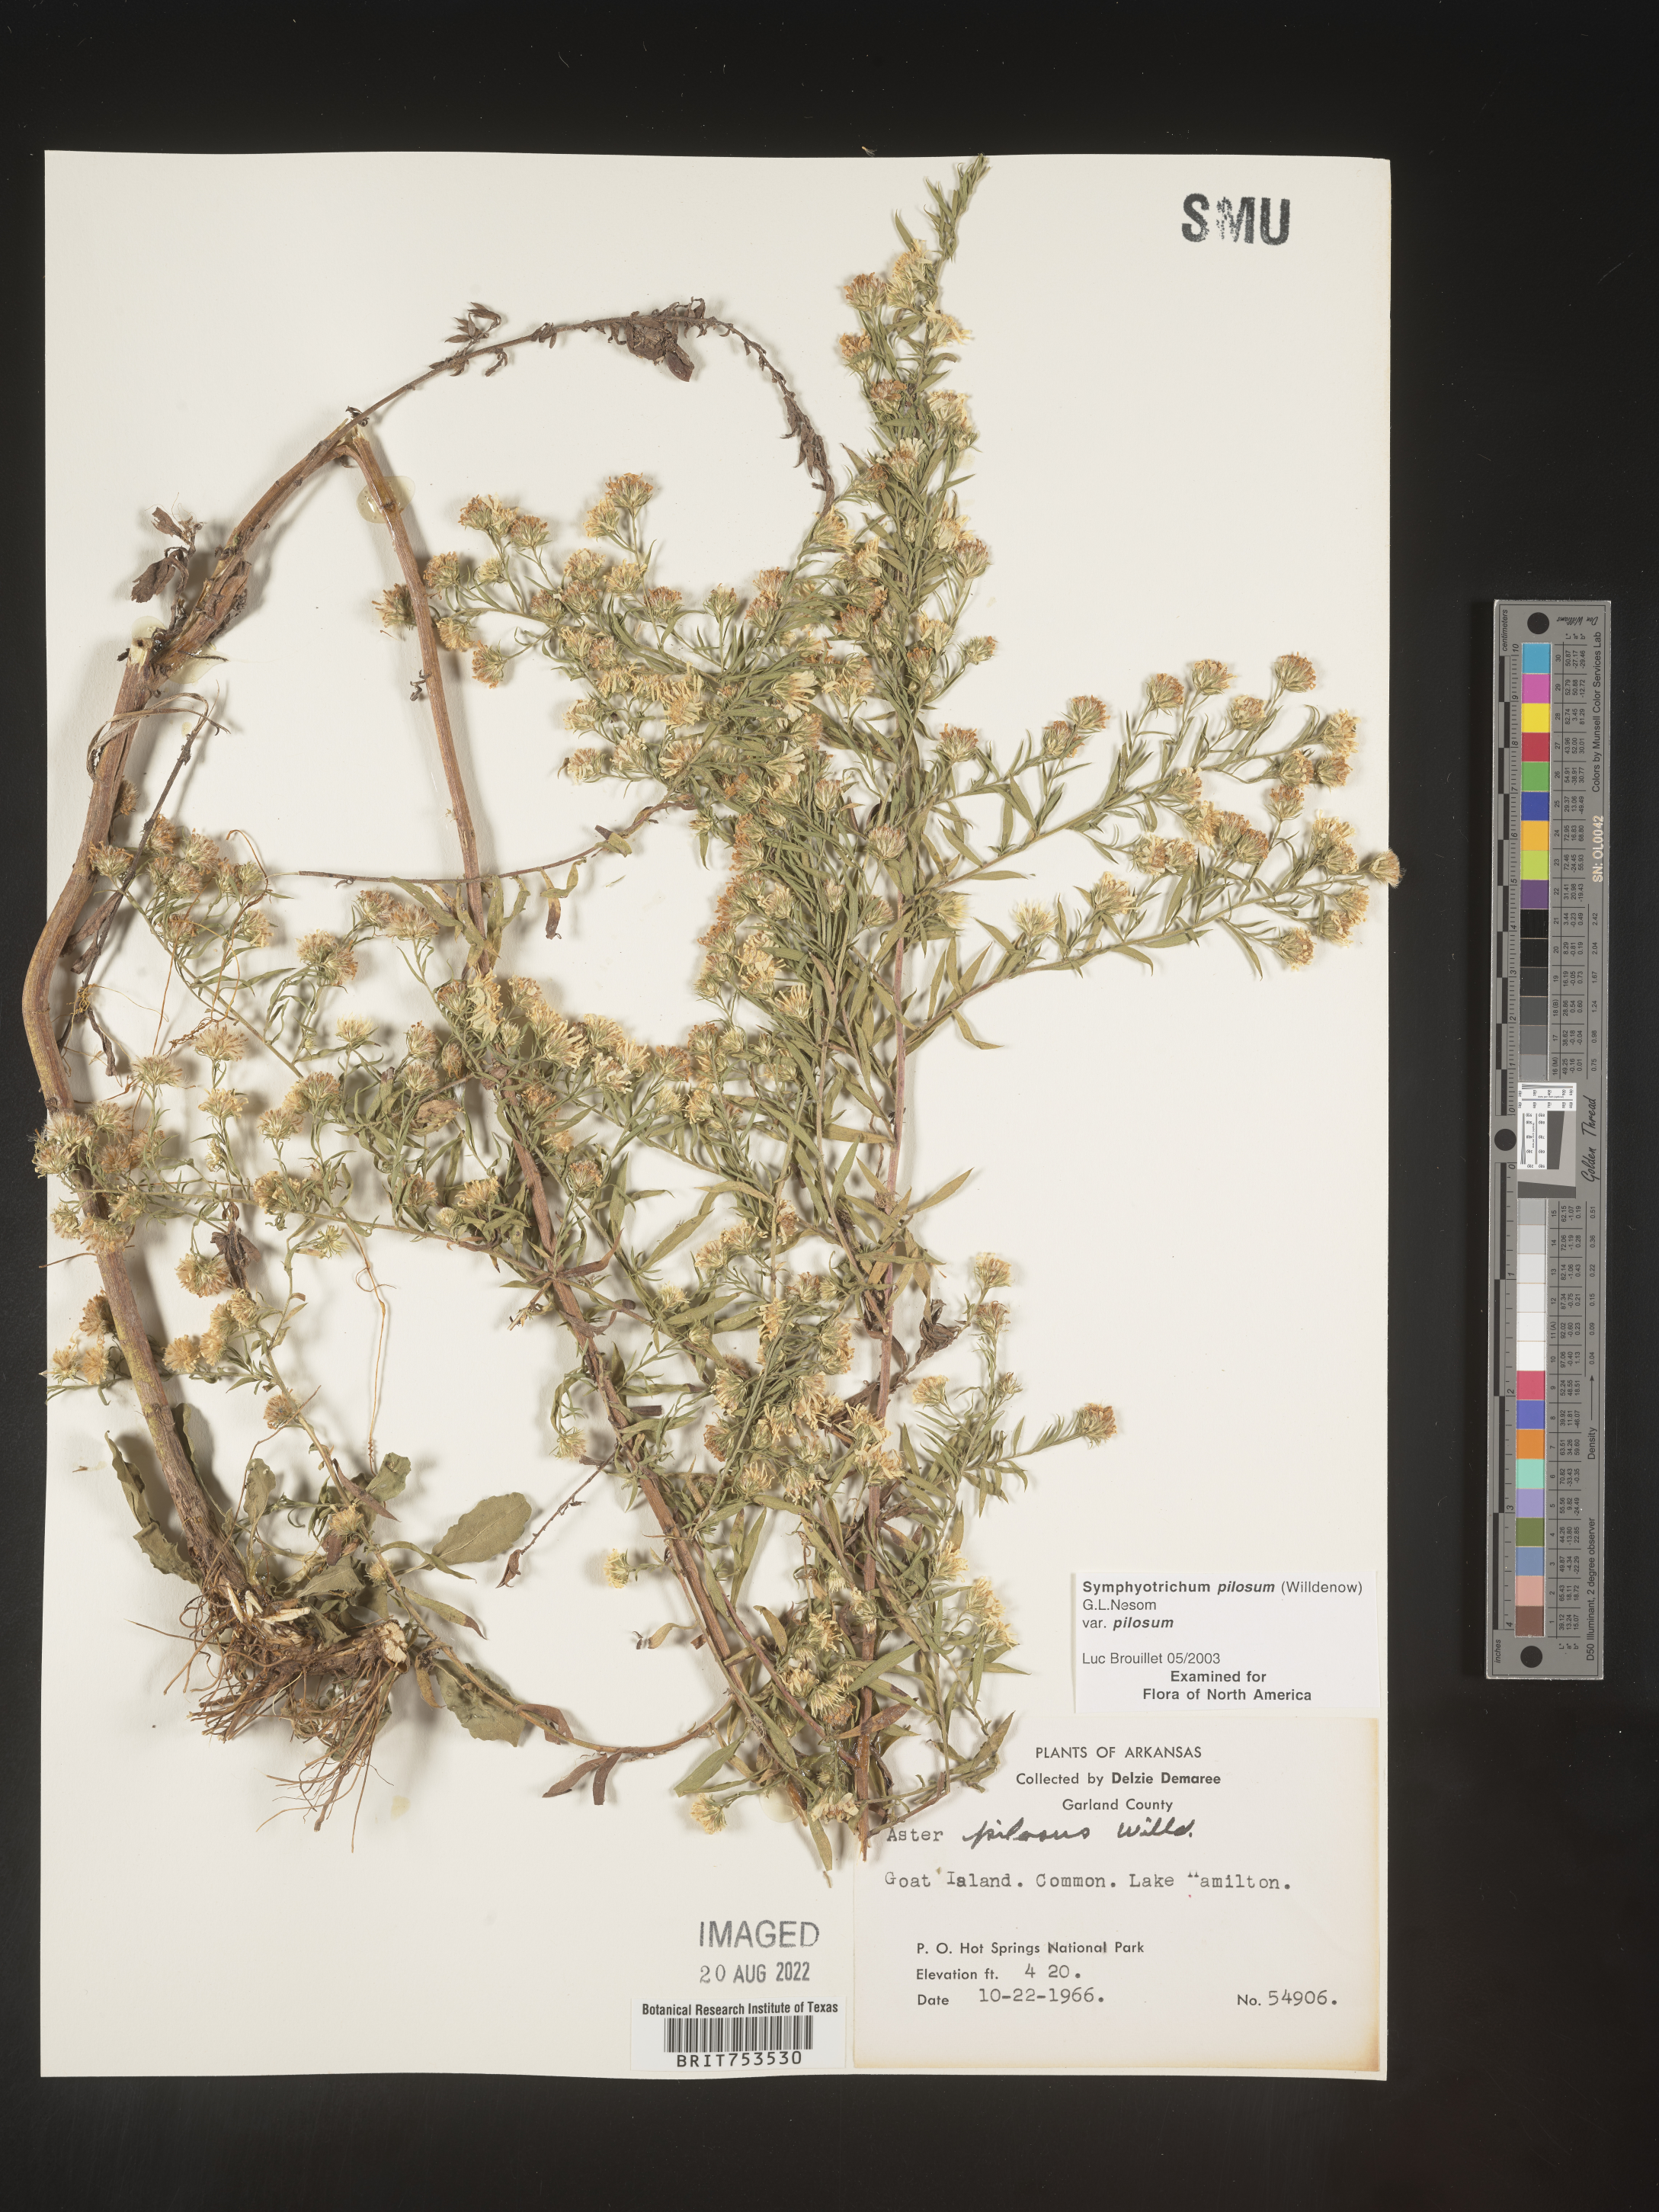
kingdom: Plantae
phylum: Tracheophyta
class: Magnoliopsida
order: Asterales
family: Asteraceae
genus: Symphyotrichum
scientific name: Symphyotrichum pilosum
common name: Awl aster
